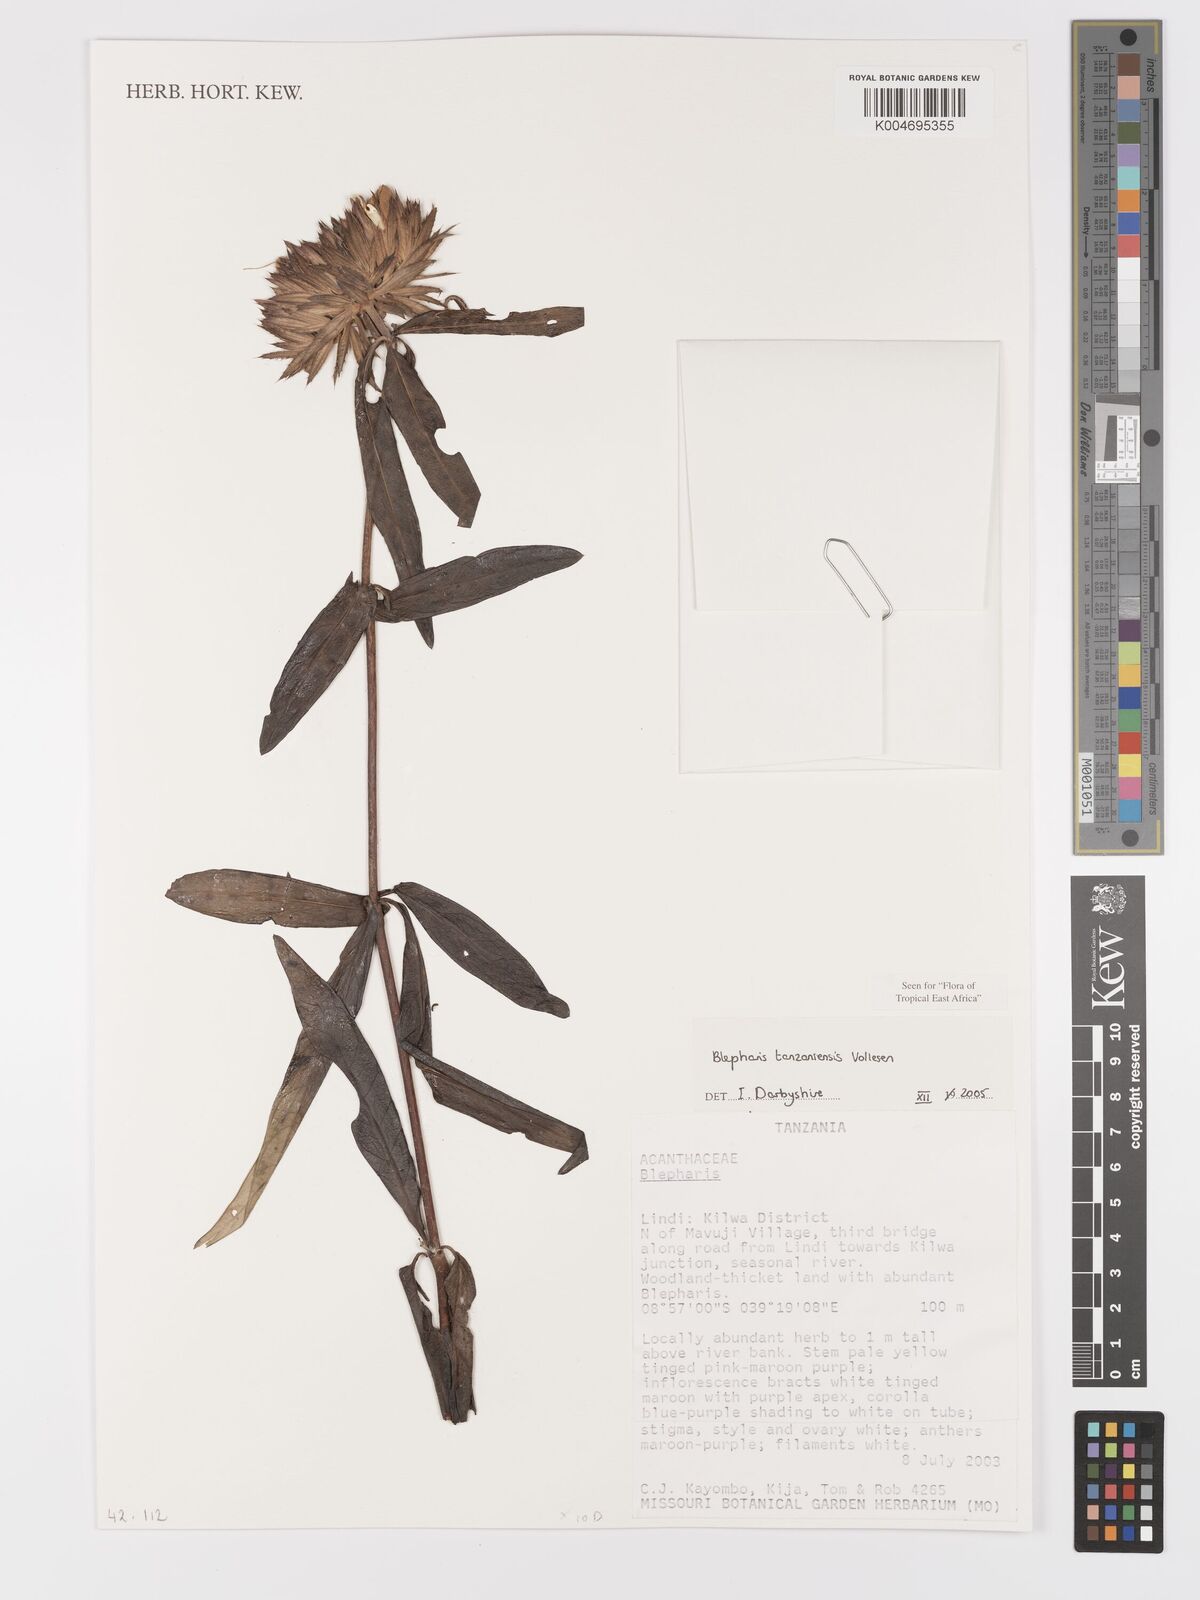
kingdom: Plantae
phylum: Tracheophyta
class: Magnoliopsida
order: Lamiales
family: Acanthaceae
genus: Blepharis
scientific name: Blepharis tanzaniensis
